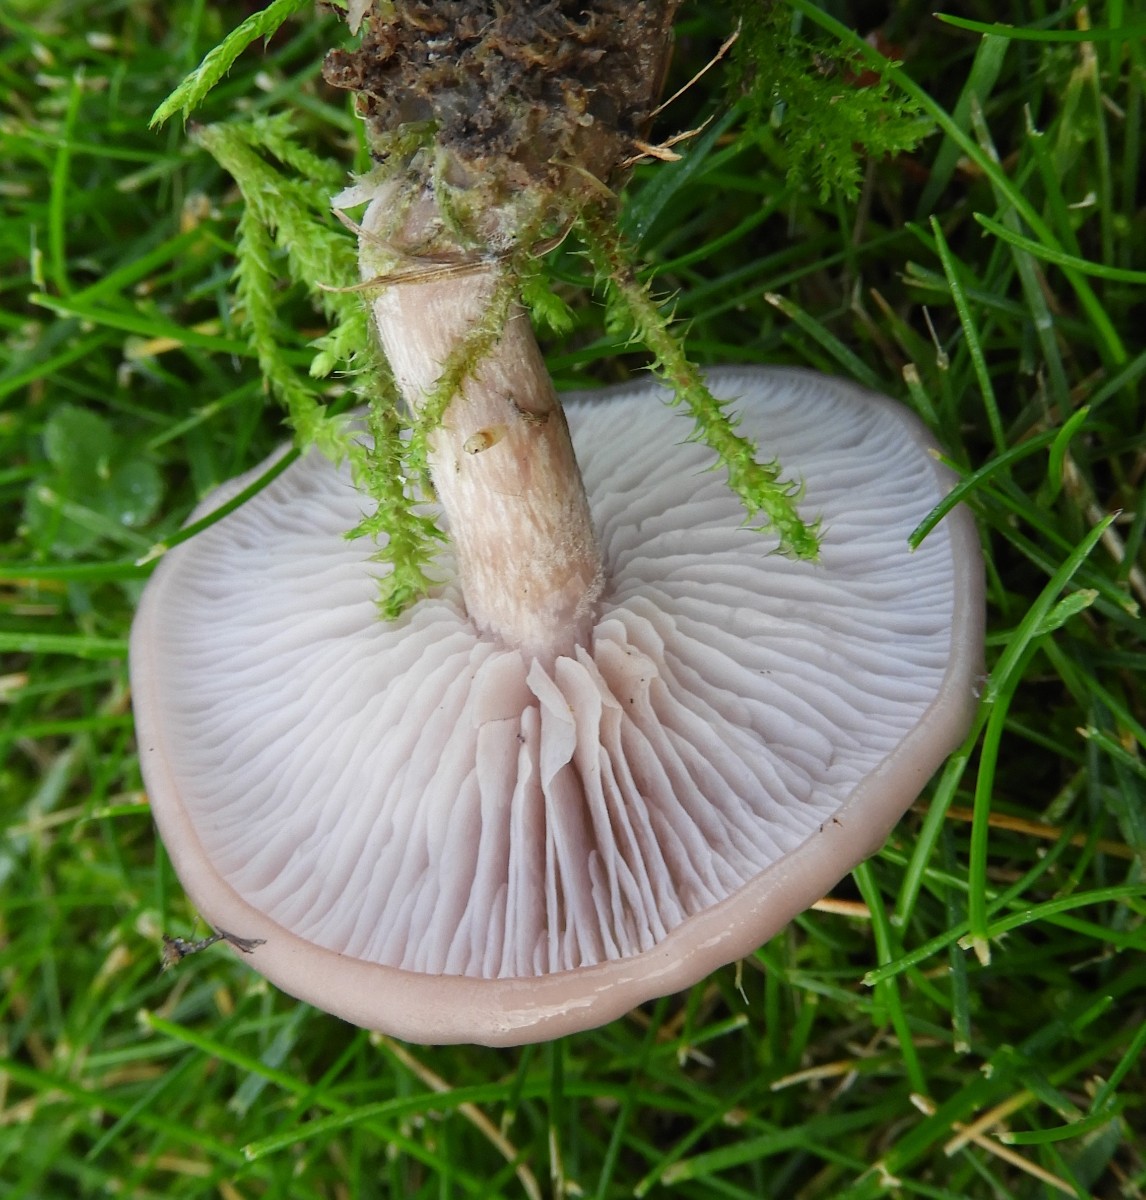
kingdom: Fungi
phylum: Basidiomycota
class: Agaricomycetes
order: Agaricales
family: Tricholomataceae
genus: Lepista
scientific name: Lepista sordida
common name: spinkel hekseringshat
